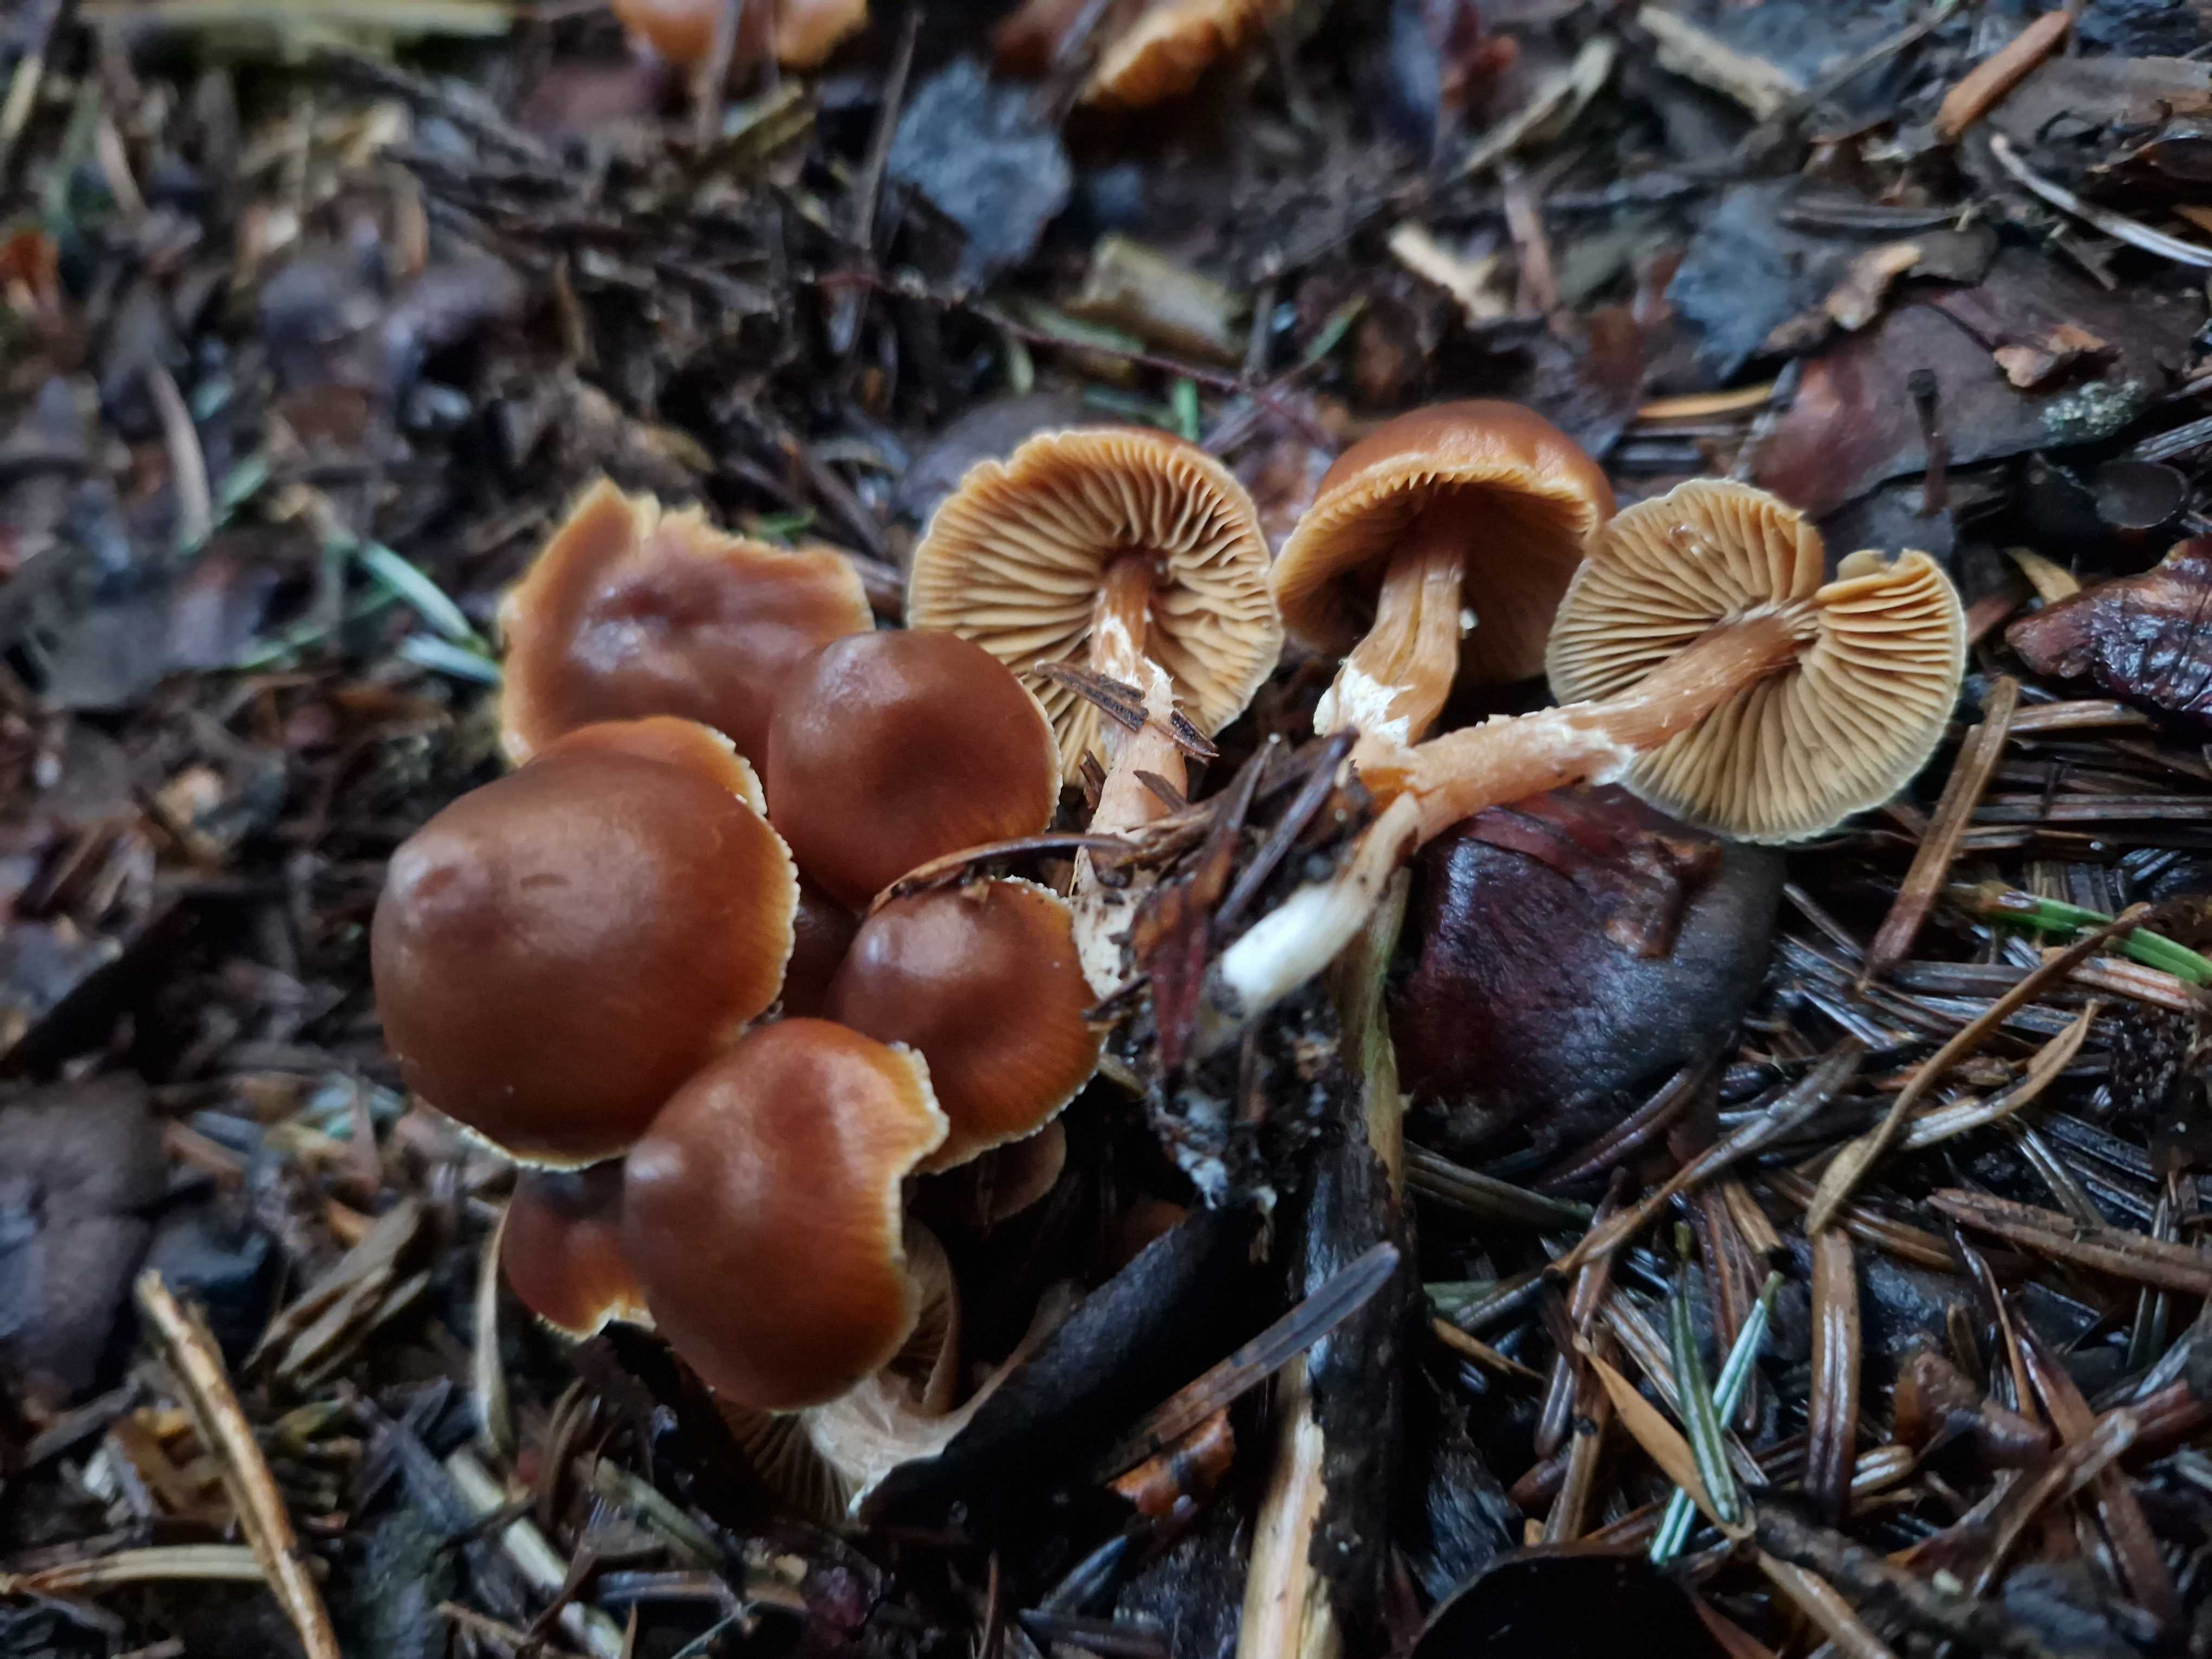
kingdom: Fungi
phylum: Basidiomycota
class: Agaricomycetes
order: Agaricales
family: Cortinariaceae
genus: Cortinarius
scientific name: Cortinarius
